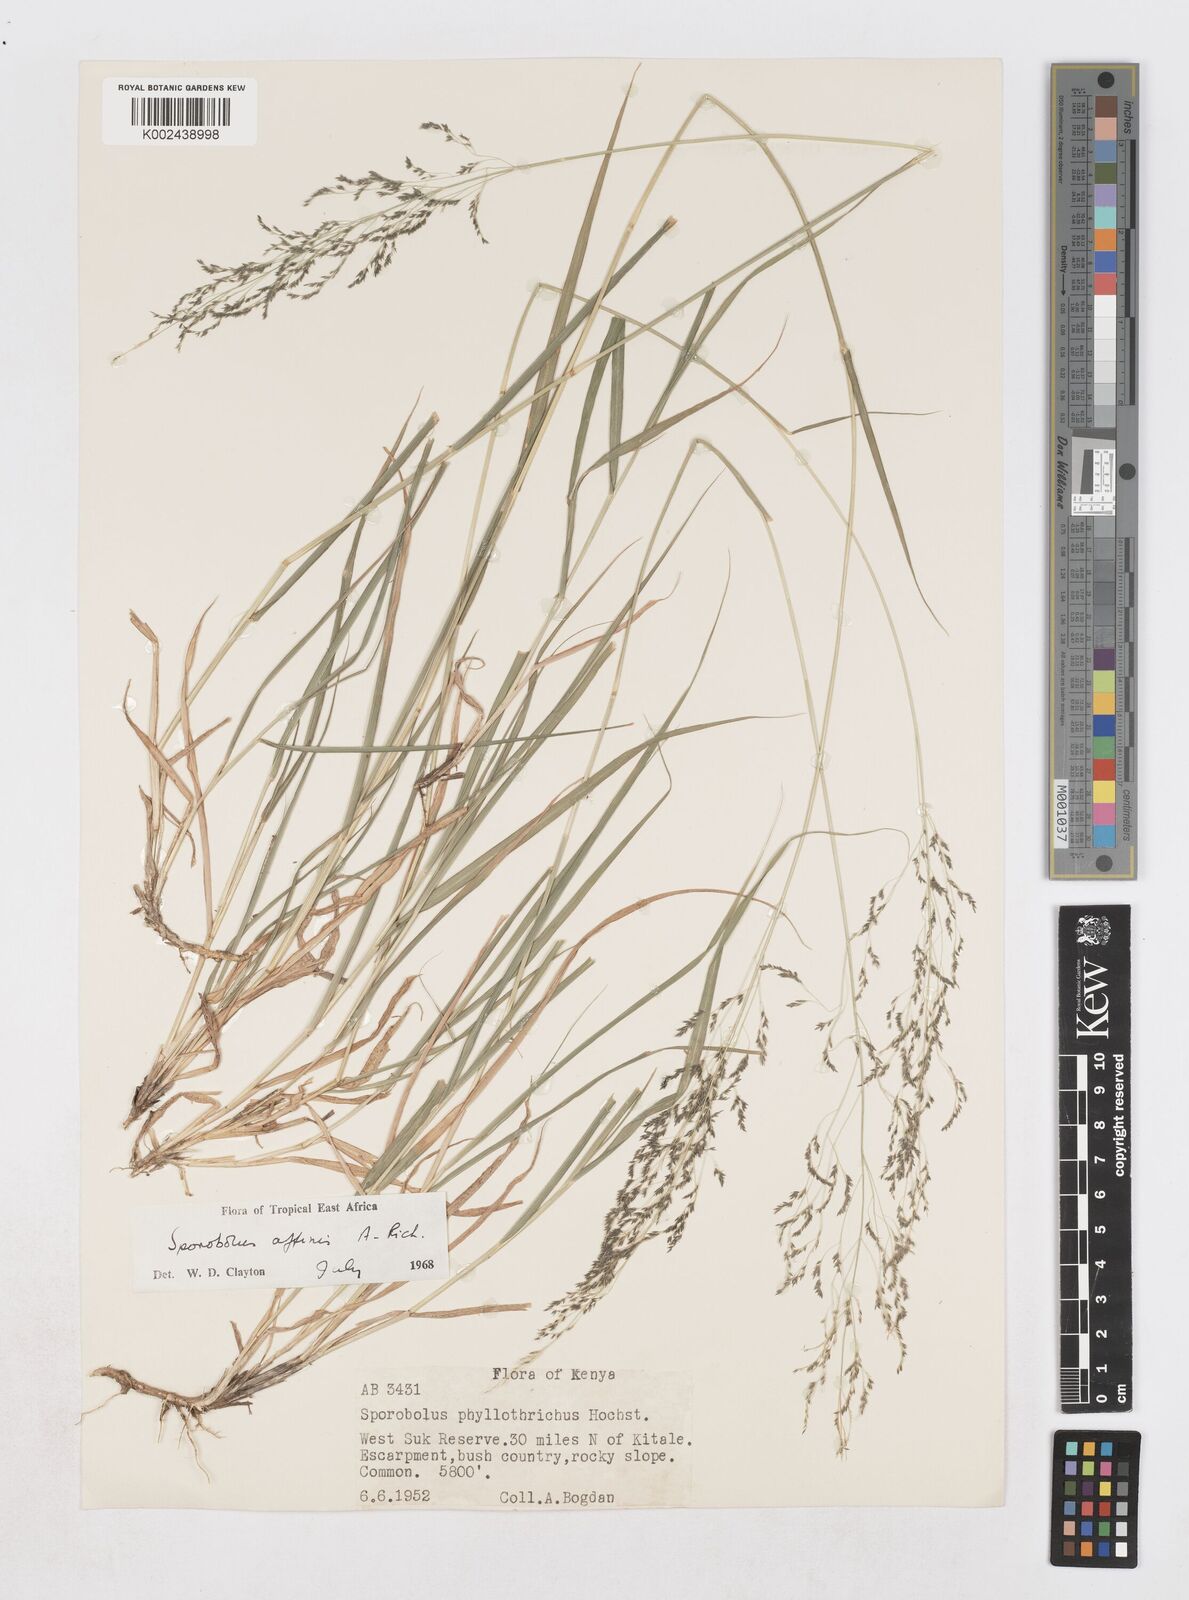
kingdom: Plantae
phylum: Tracheophyta
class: Liliopsida
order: Poales
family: Poaceae
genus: Sporobolus
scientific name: Sporobolus confinis
